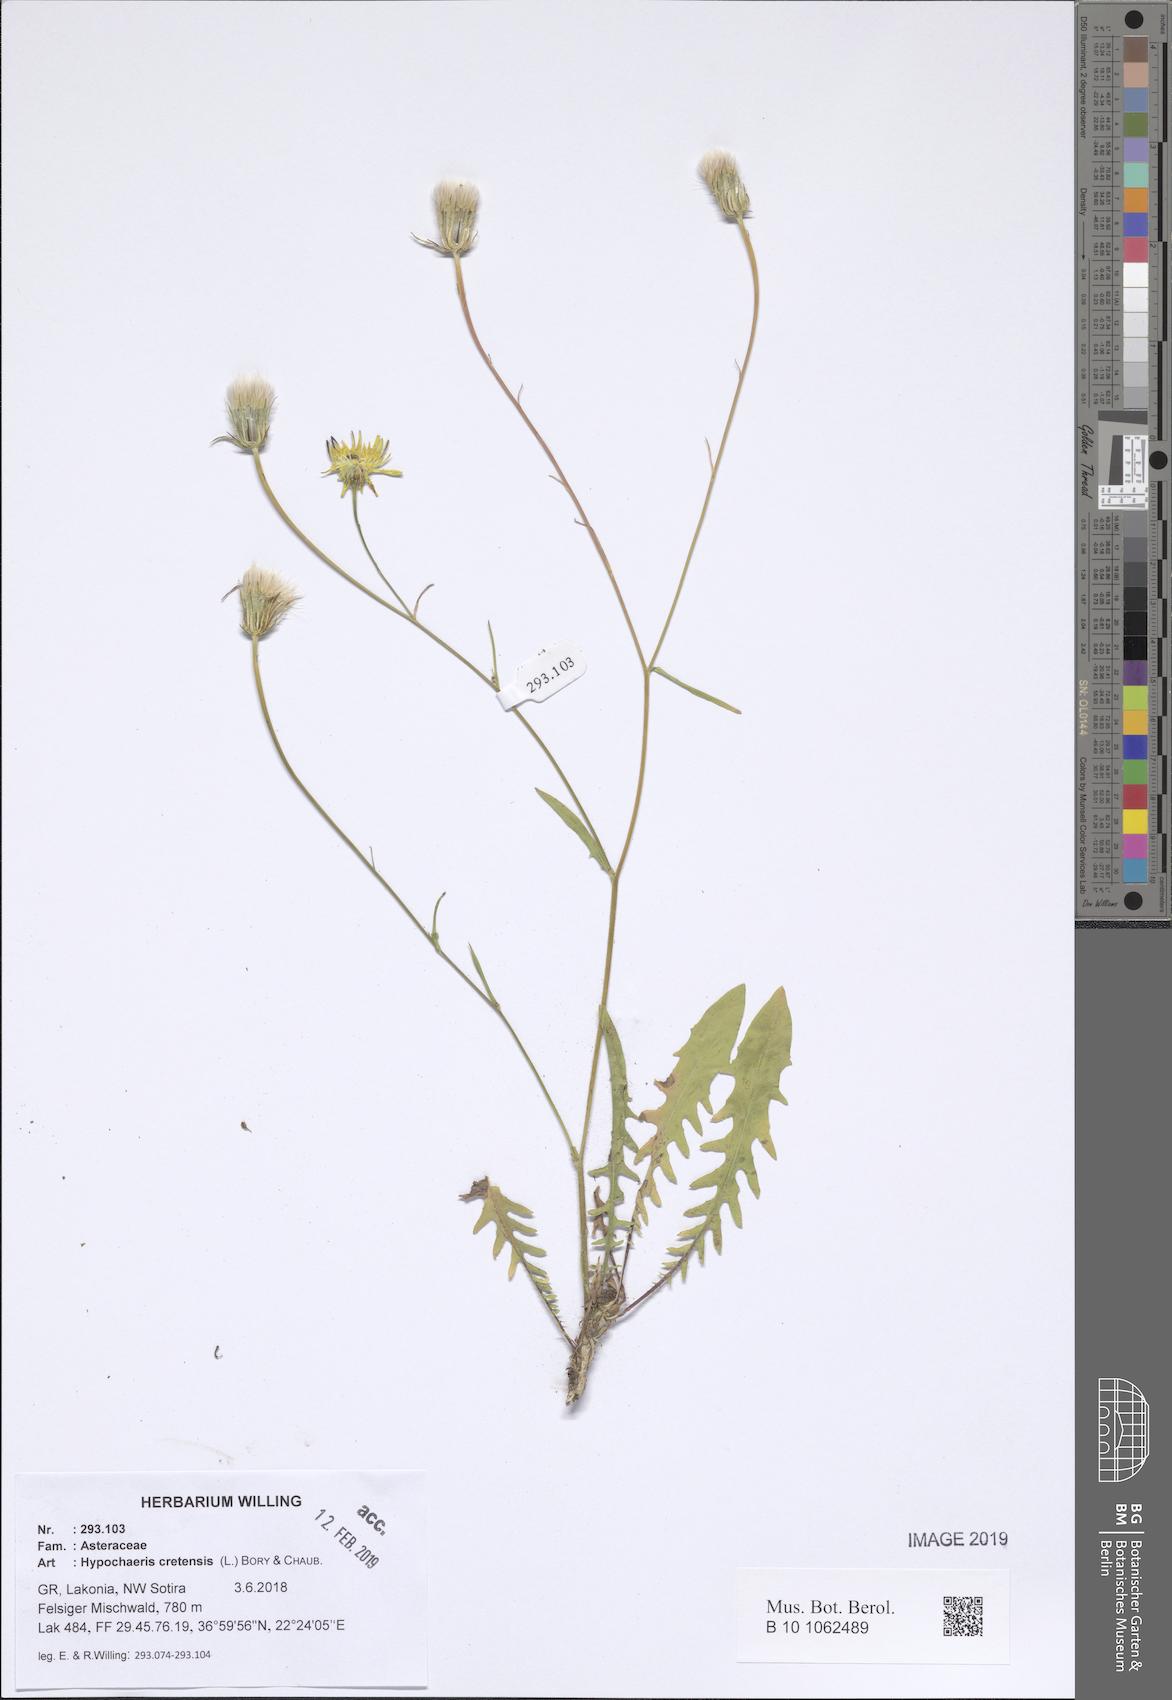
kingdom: Plantae
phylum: Tracheophyta
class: Magnoliopsida
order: Asterales
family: Asteraceae
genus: Hypochaeris
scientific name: Hypochaeris cretensis
